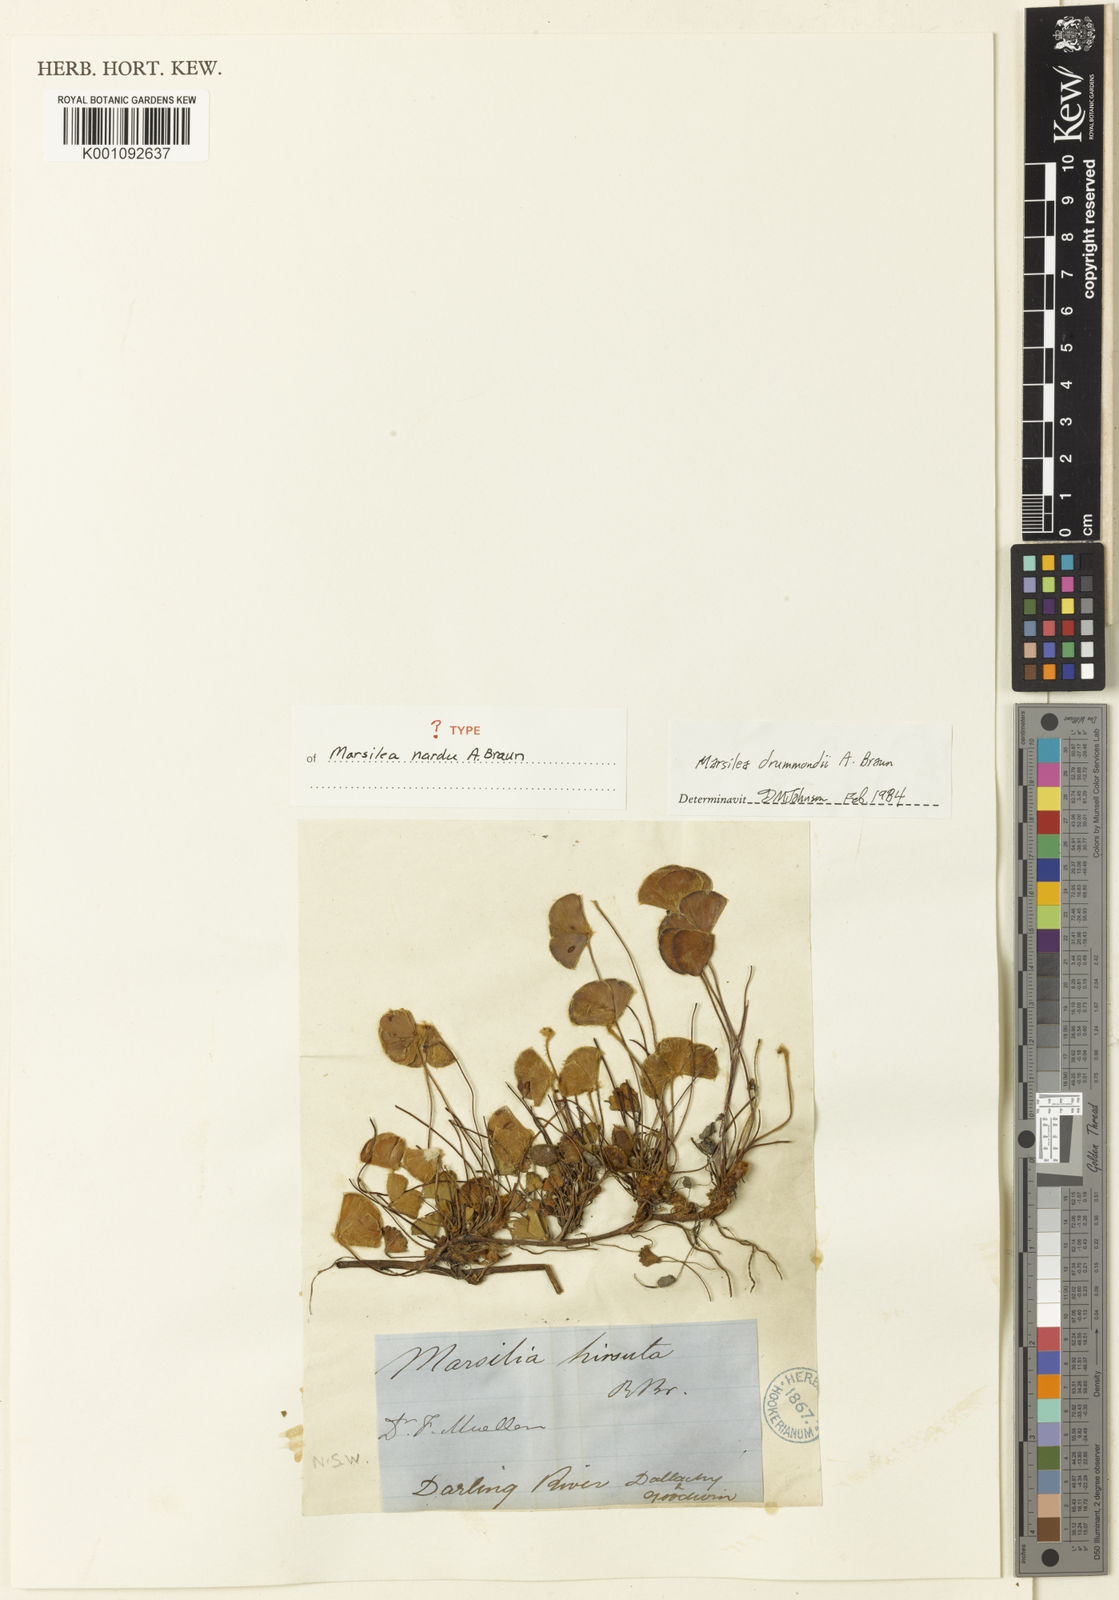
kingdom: Plantae
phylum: Tracheophyta
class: Polypodiopsida
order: Salviniales
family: Marsileaceae
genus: Marsilea
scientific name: Marsilea drummondii
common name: Nardoo
